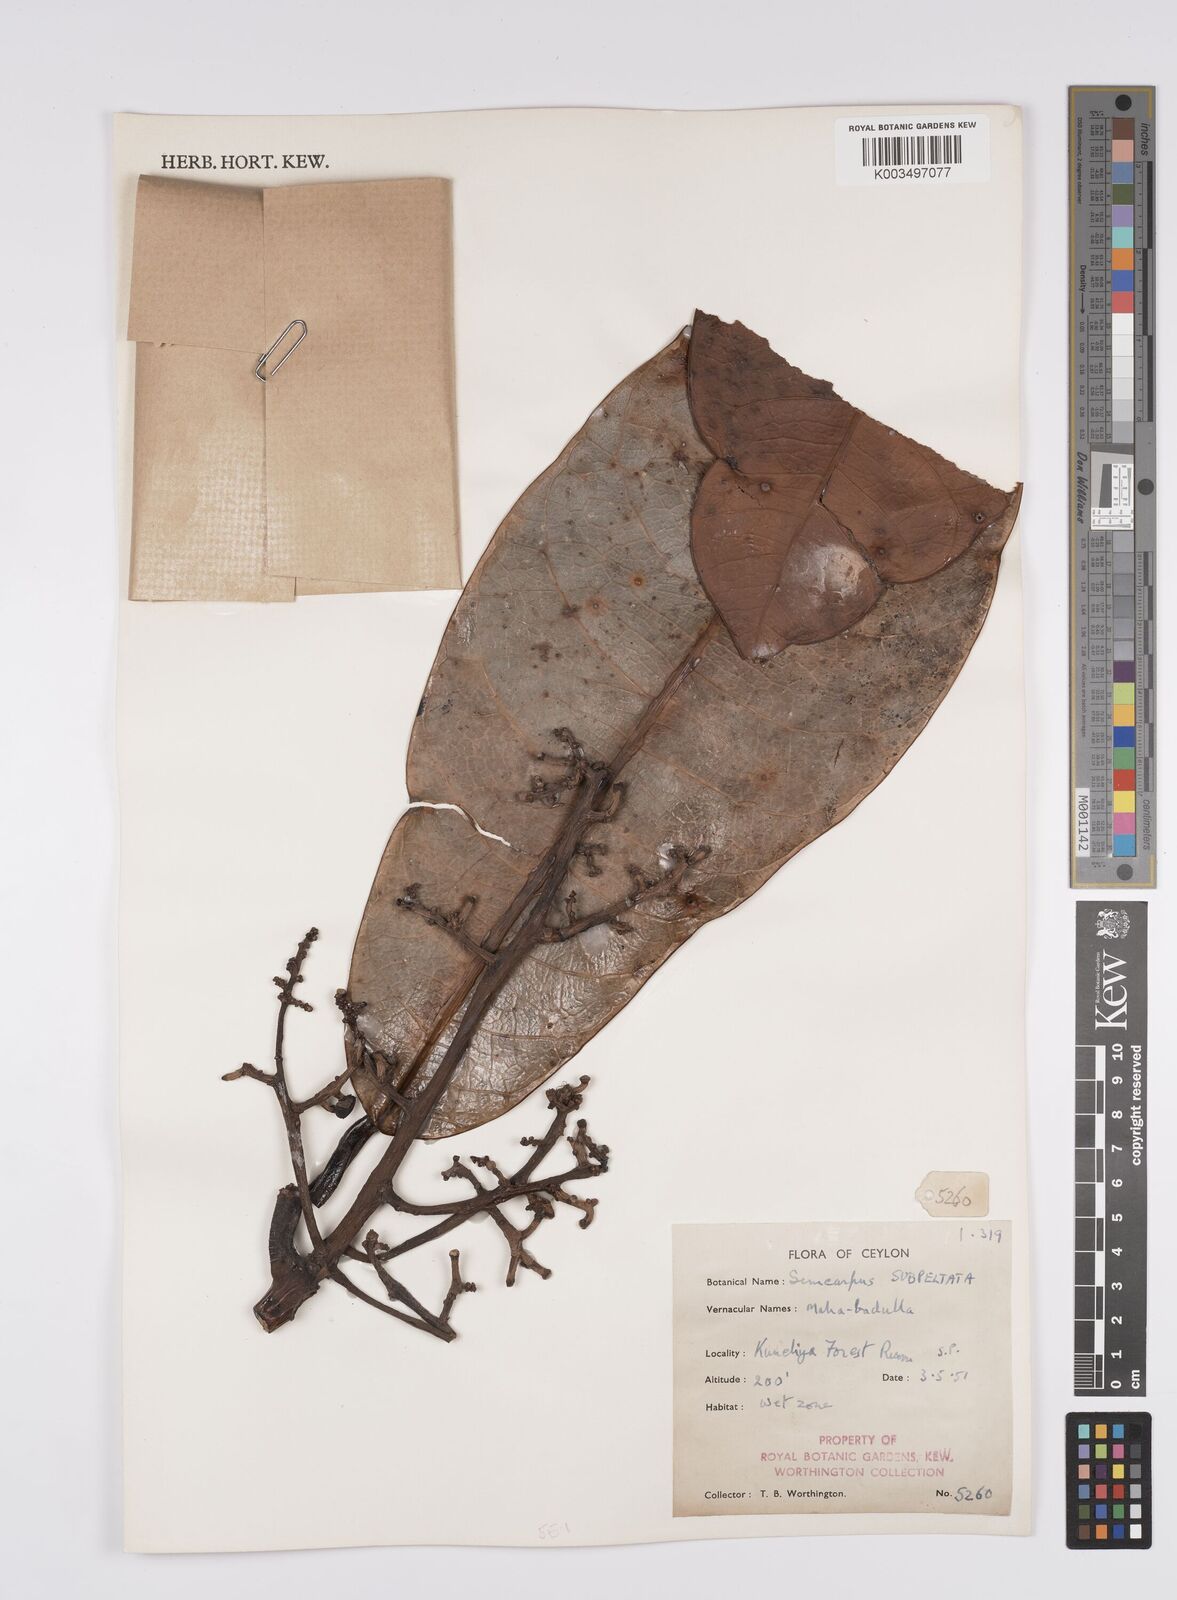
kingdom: Plantae
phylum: Tracheophyta
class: Magnoliopsida
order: Sapindales
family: Anacardiaceae
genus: Semecarpus
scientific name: Semecarpus subpeltatus
